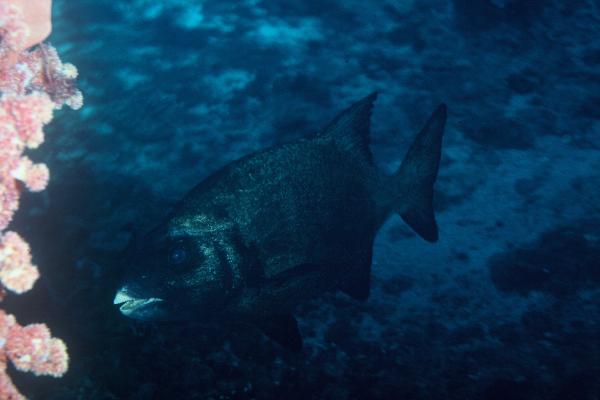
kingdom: Animalia
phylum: Chordata
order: Perciformes
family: Oplegnathidae
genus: Oplegnathus
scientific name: Oplegnathus
